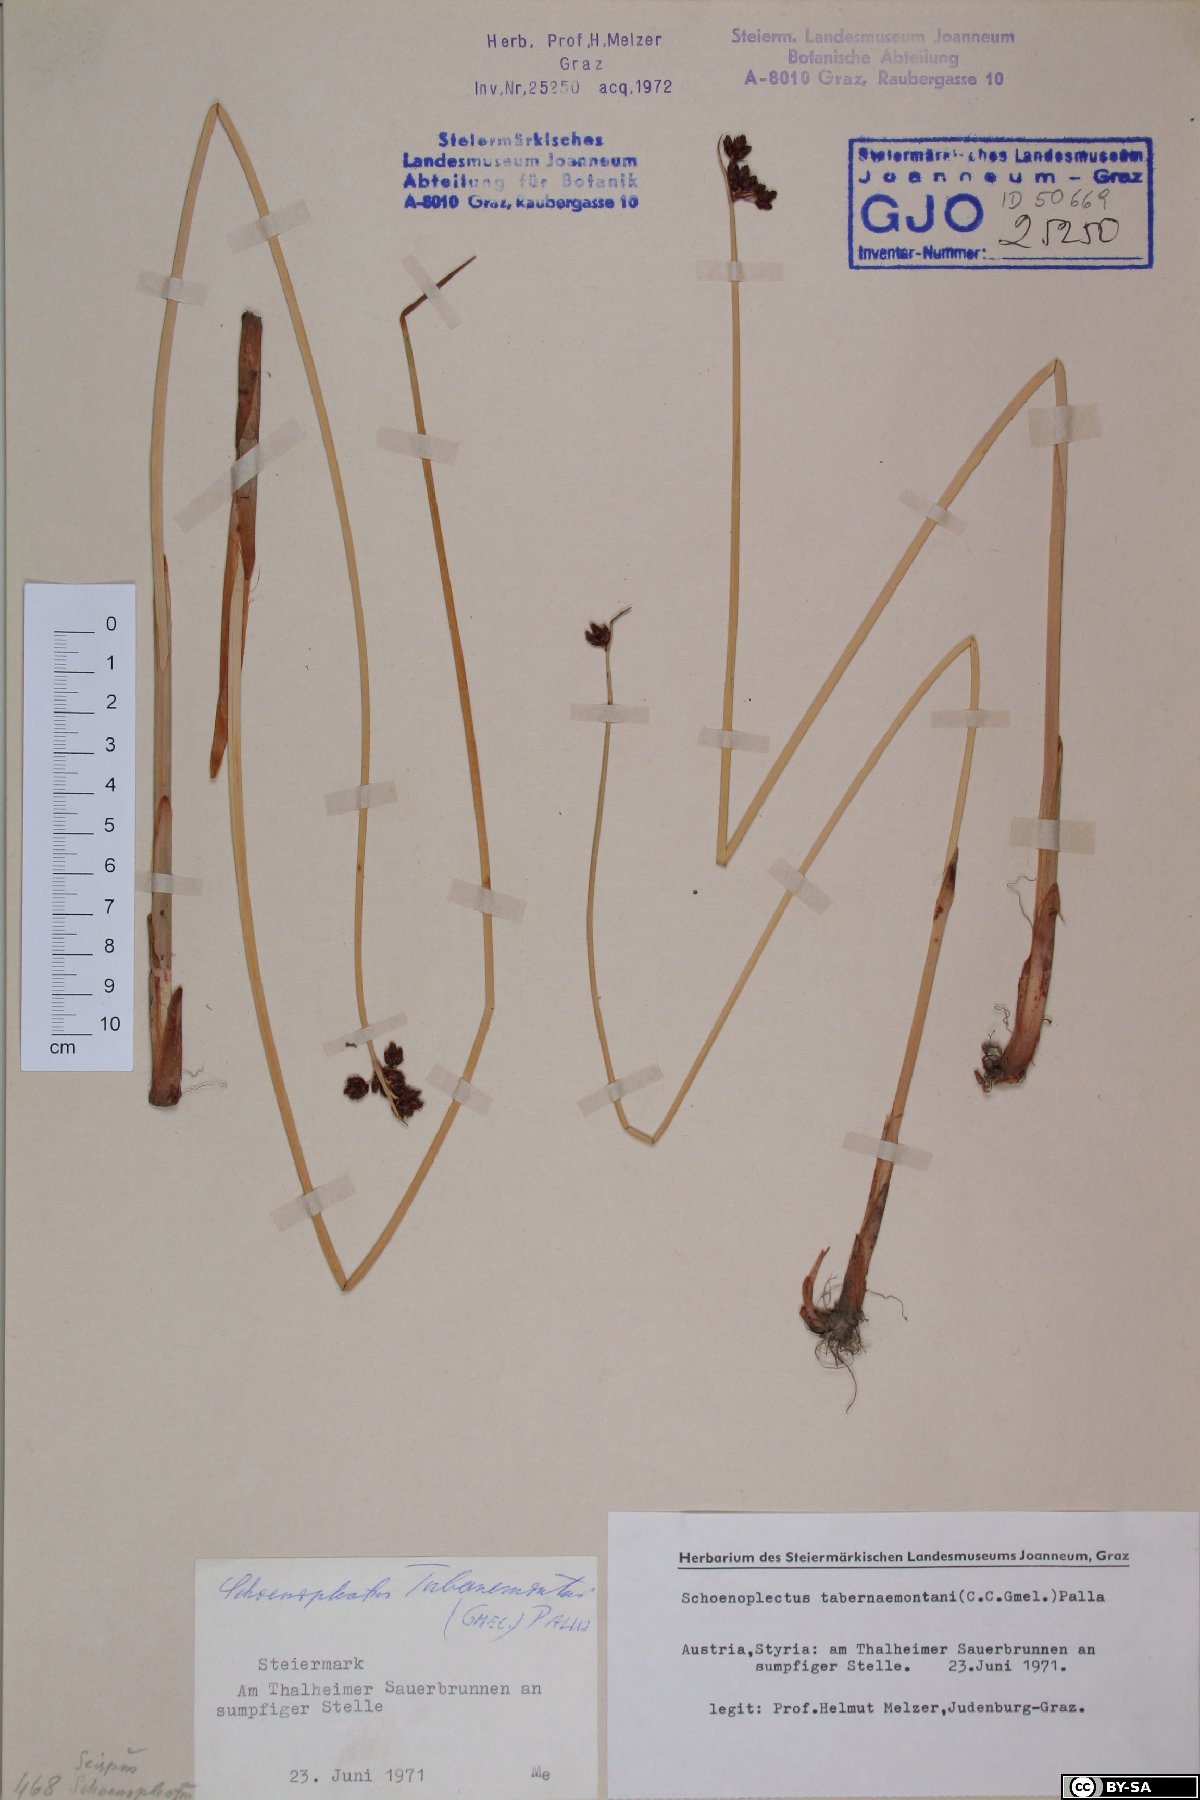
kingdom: Plantae
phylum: Tracheophyta
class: Liliopsida
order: Poales
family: Cyperaceae
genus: Schoenoplectus
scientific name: Schoenoplectus tabernaemontani
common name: Grey club-rush
